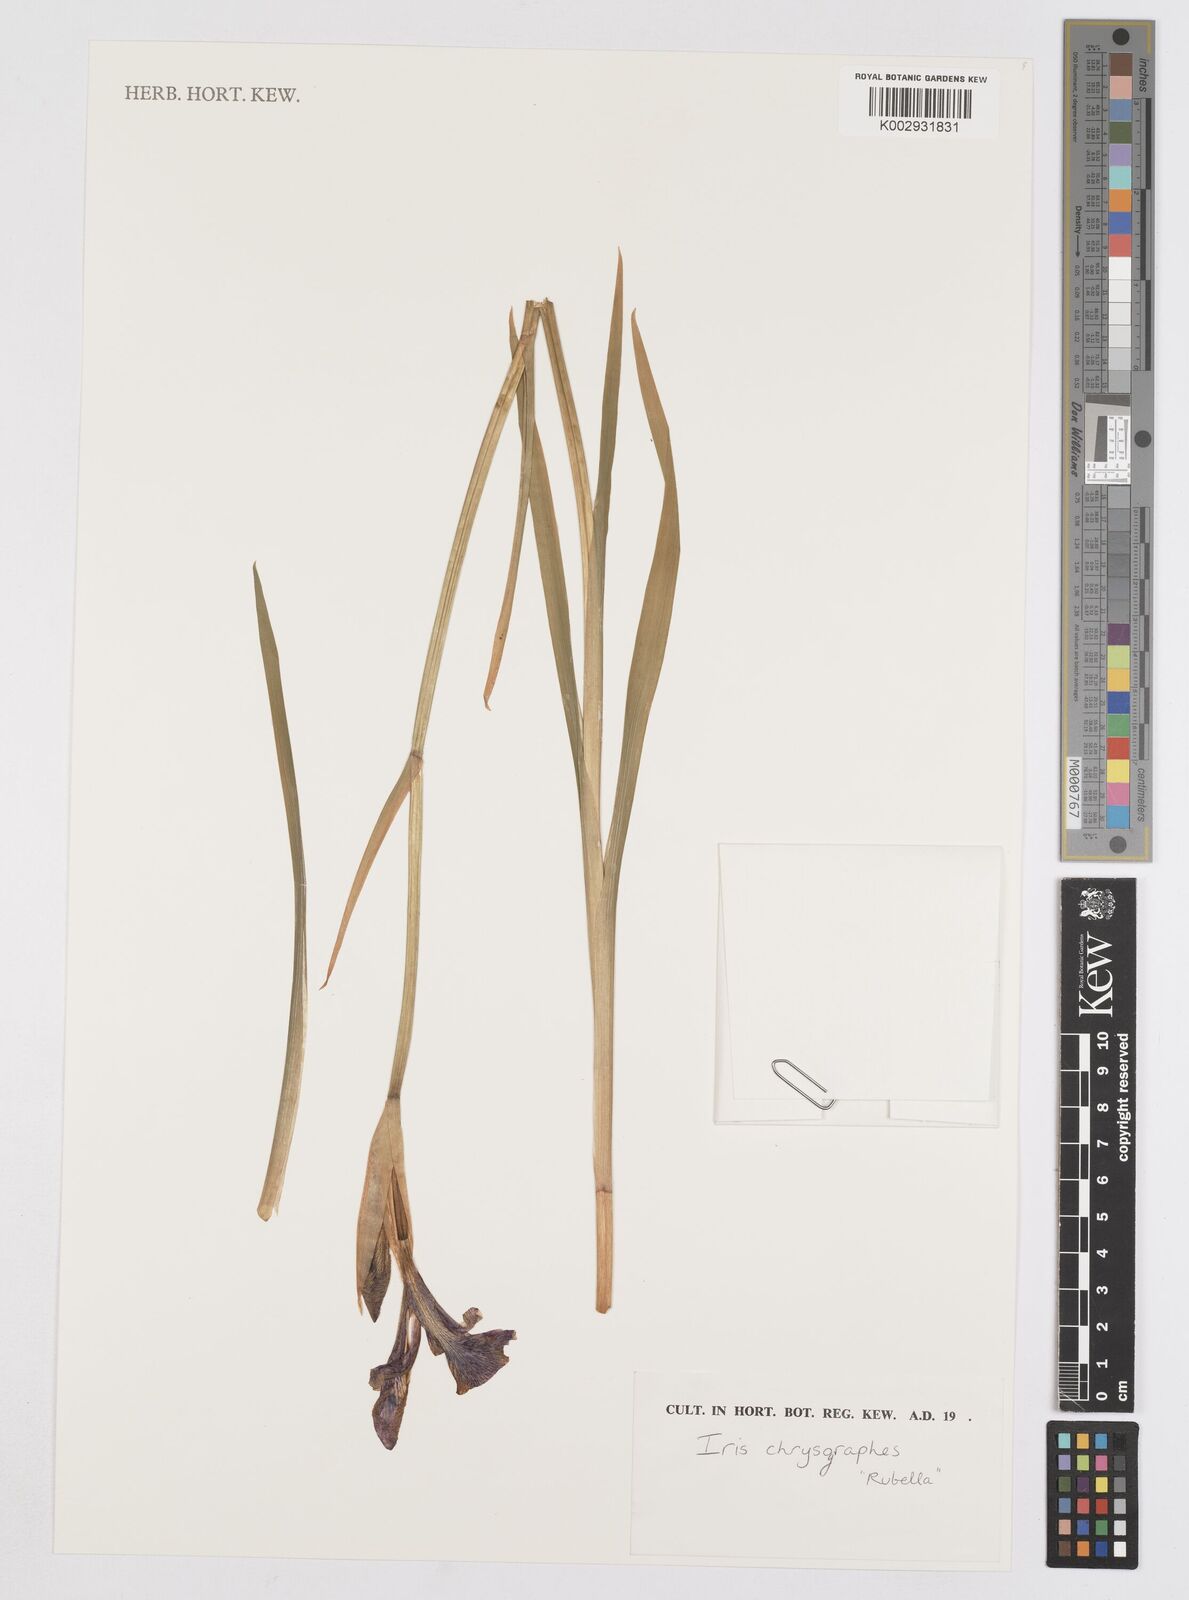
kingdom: Plantae
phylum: Tracheophyta
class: Liliopsida
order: Asparagales
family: Iridaceae
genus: Iris
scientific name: Iris chrysographes
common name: Gold-vein iris
